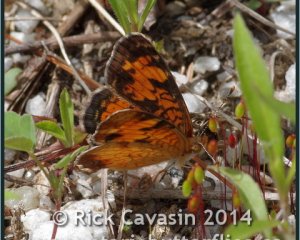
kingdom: Animalia
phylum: Arthropoda
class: Insecta
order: Lepidoptera
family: Nymphalidae
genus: Phyciodes
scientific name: Phyciodes tharos
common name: Northern Crescent
